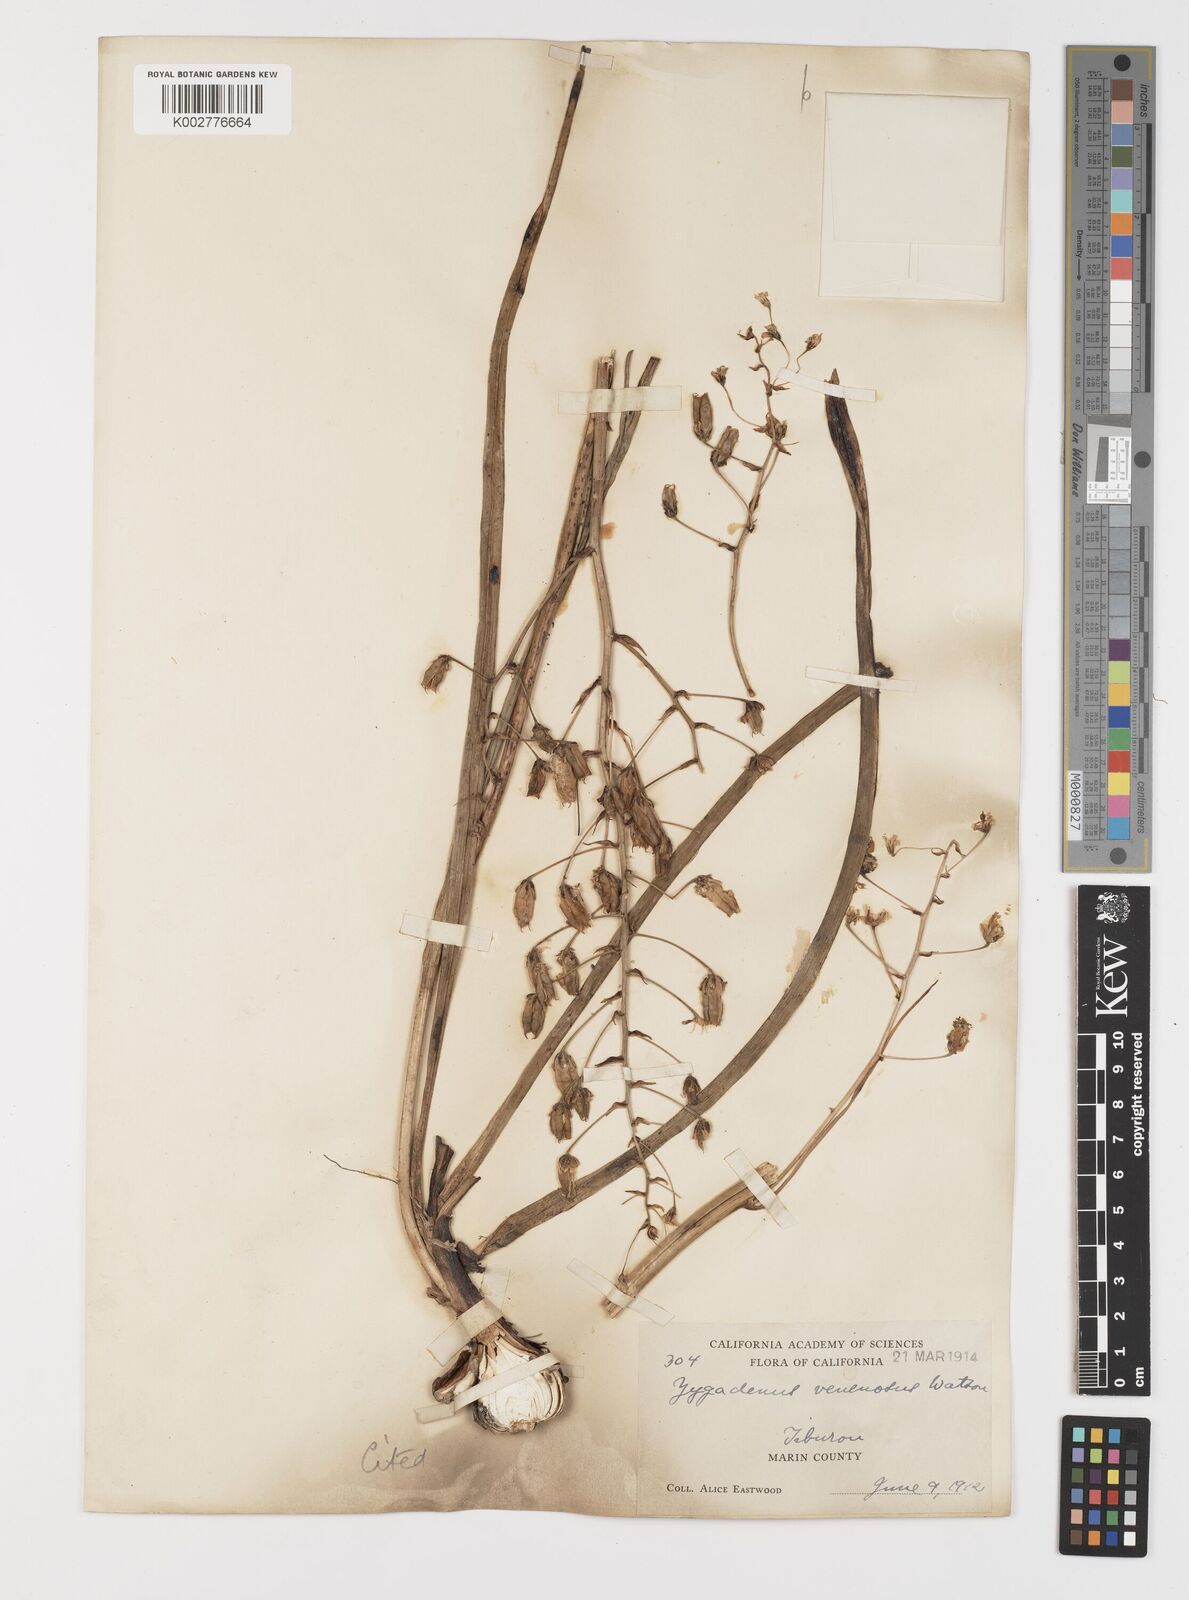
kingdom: Plantae
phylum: Tracheophyta
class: Liliopsida
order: Liliales
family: Melanthiaceae
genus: Toxicoscordion
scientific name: Toxicoscordion venenosum
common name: Meadow death camas
